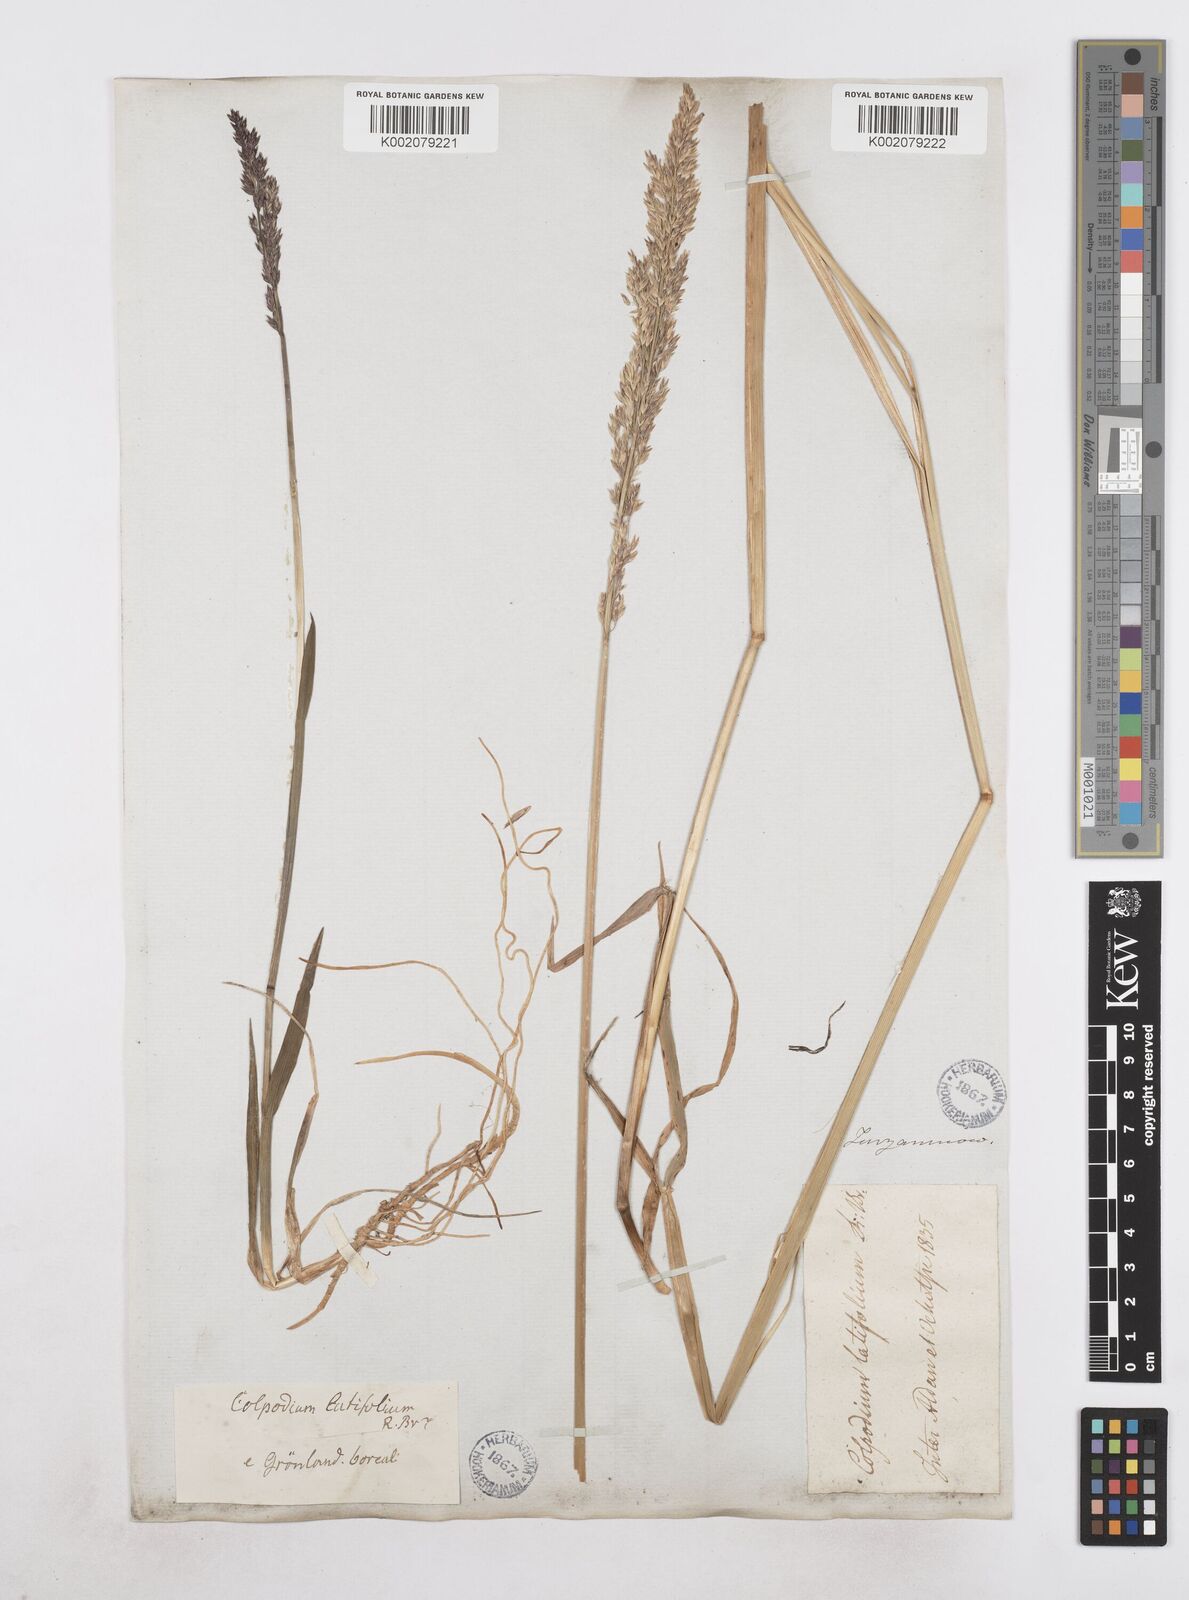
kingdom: Plantae
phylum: Tracheophyta
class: Liliopsida
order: Poales
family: Poaceae
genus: Arctagrostis
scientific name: Arctagrostis latifolia
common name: Arctic grass
